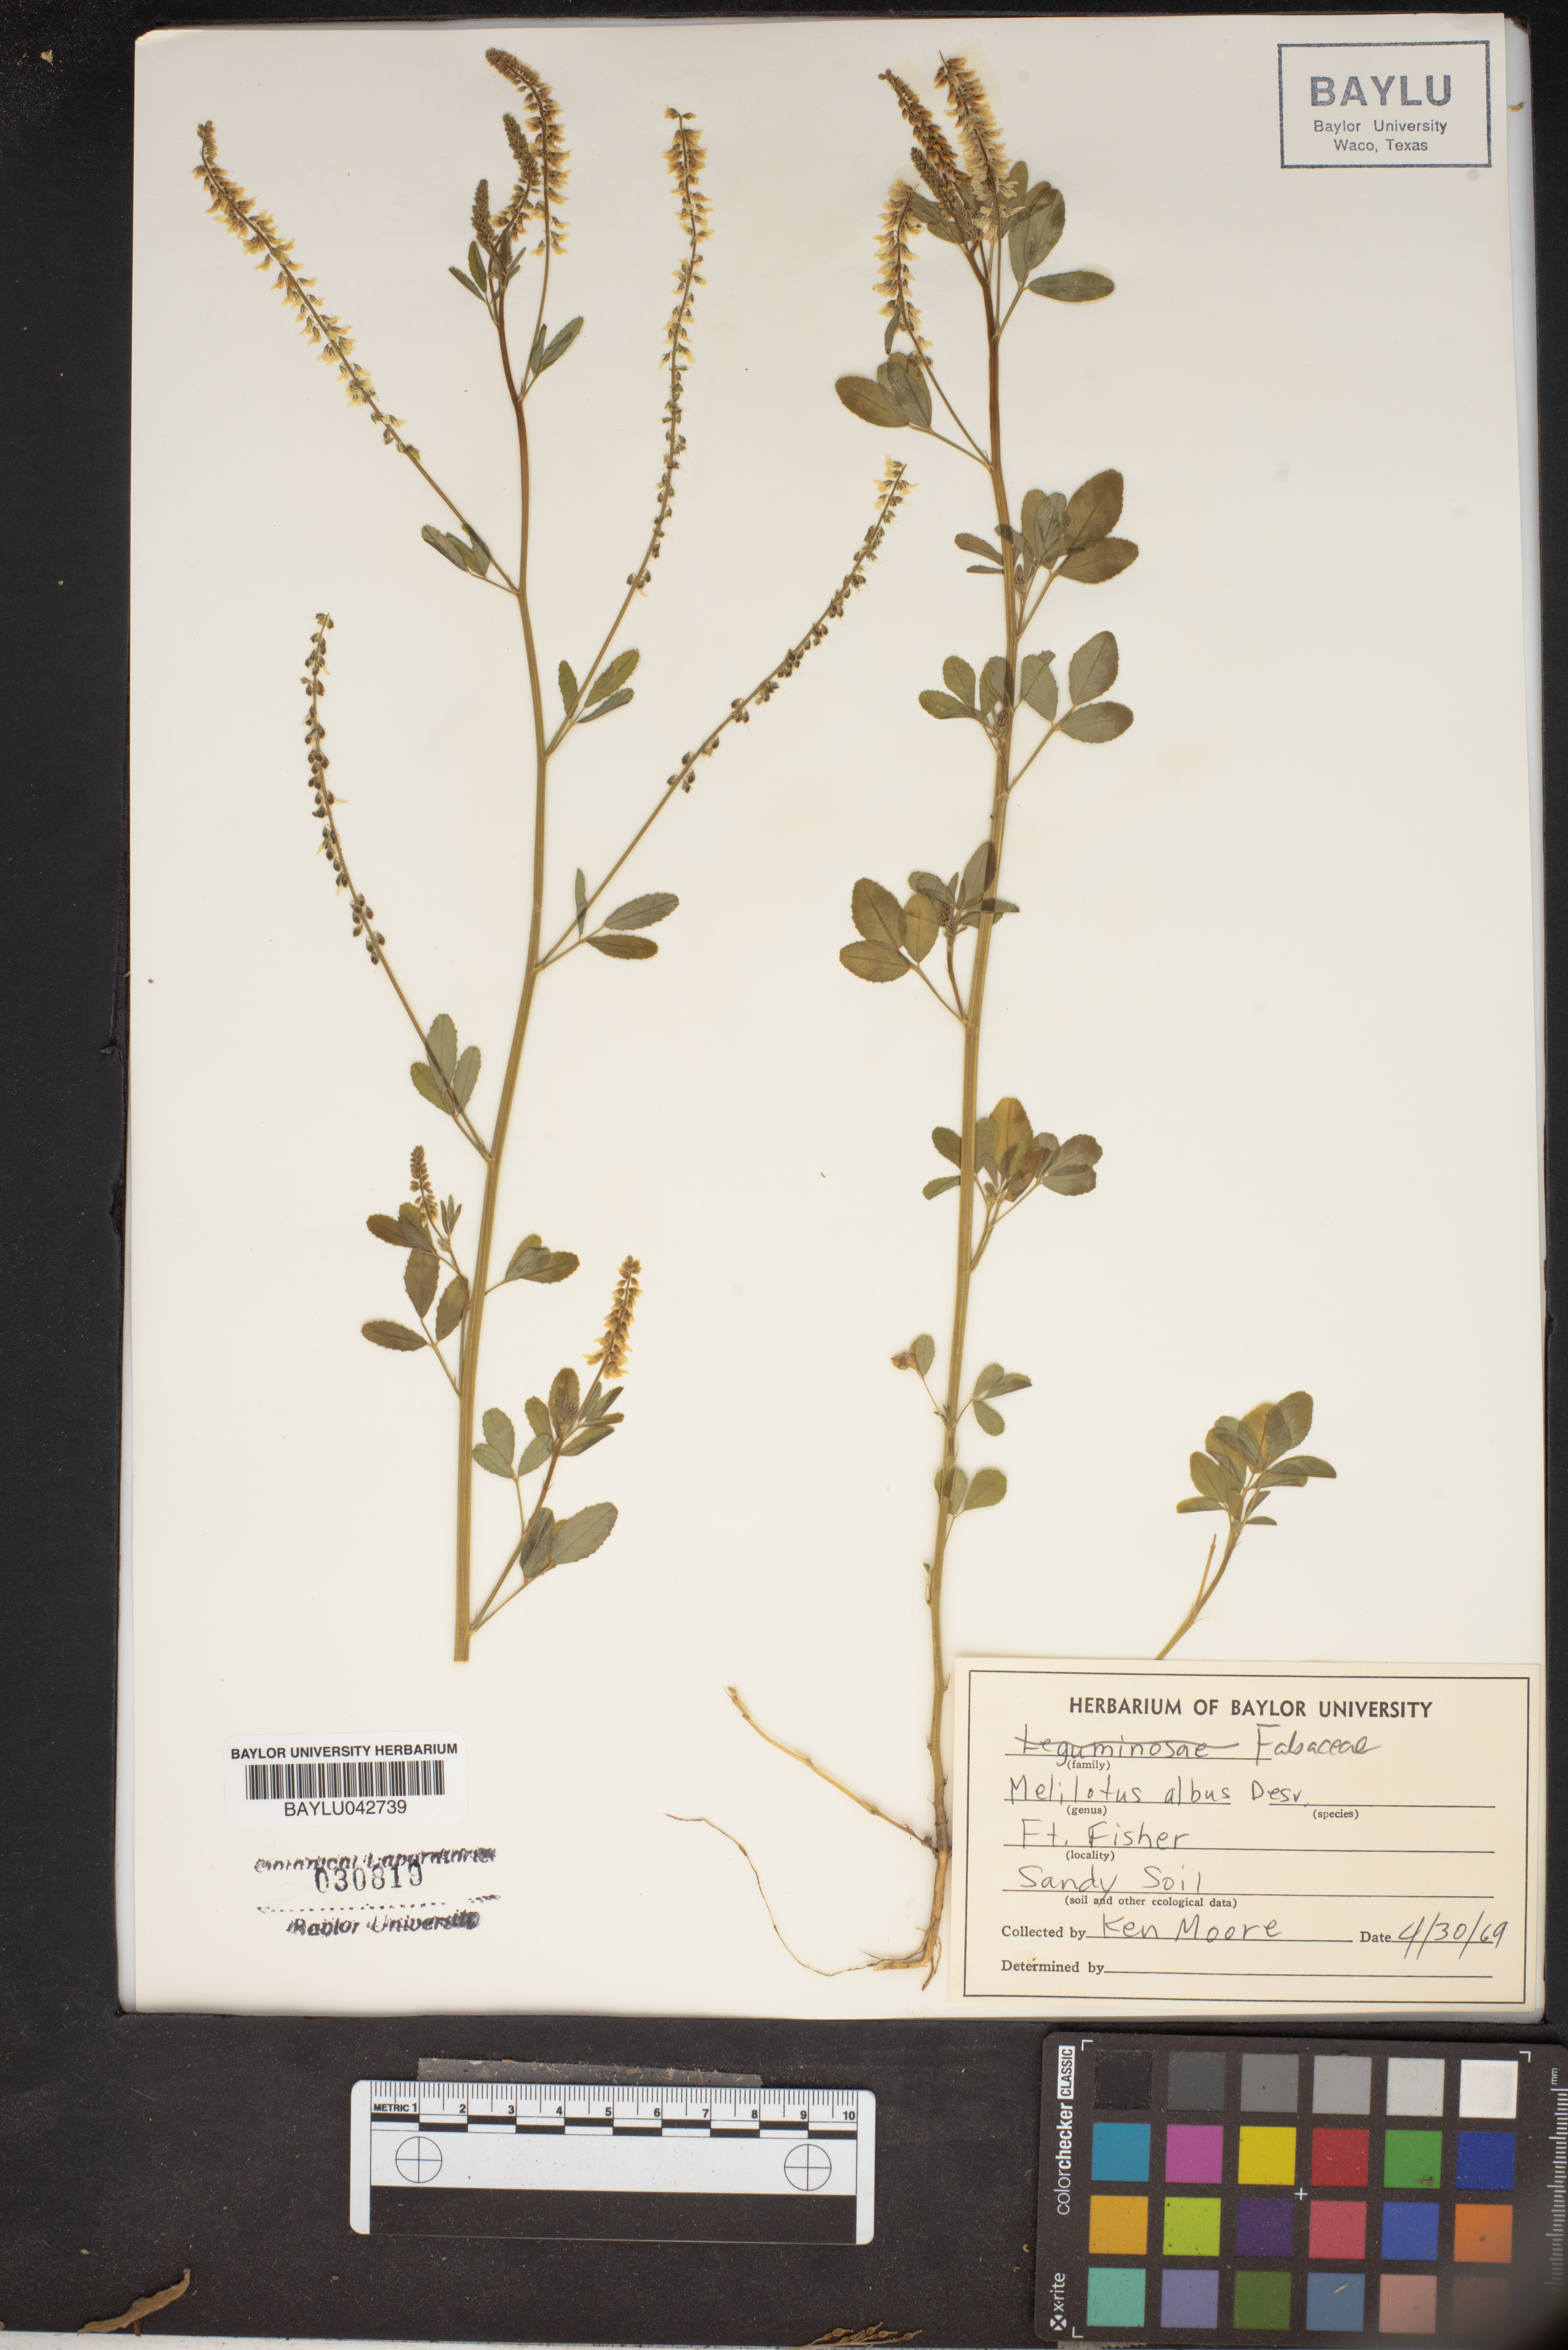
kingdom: Plantae
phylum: Tracheophyta
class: Magnoliopsida
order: Fabales
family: Fabaceae
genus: Melilotus
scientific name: Melilotus albus
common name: White melilot
